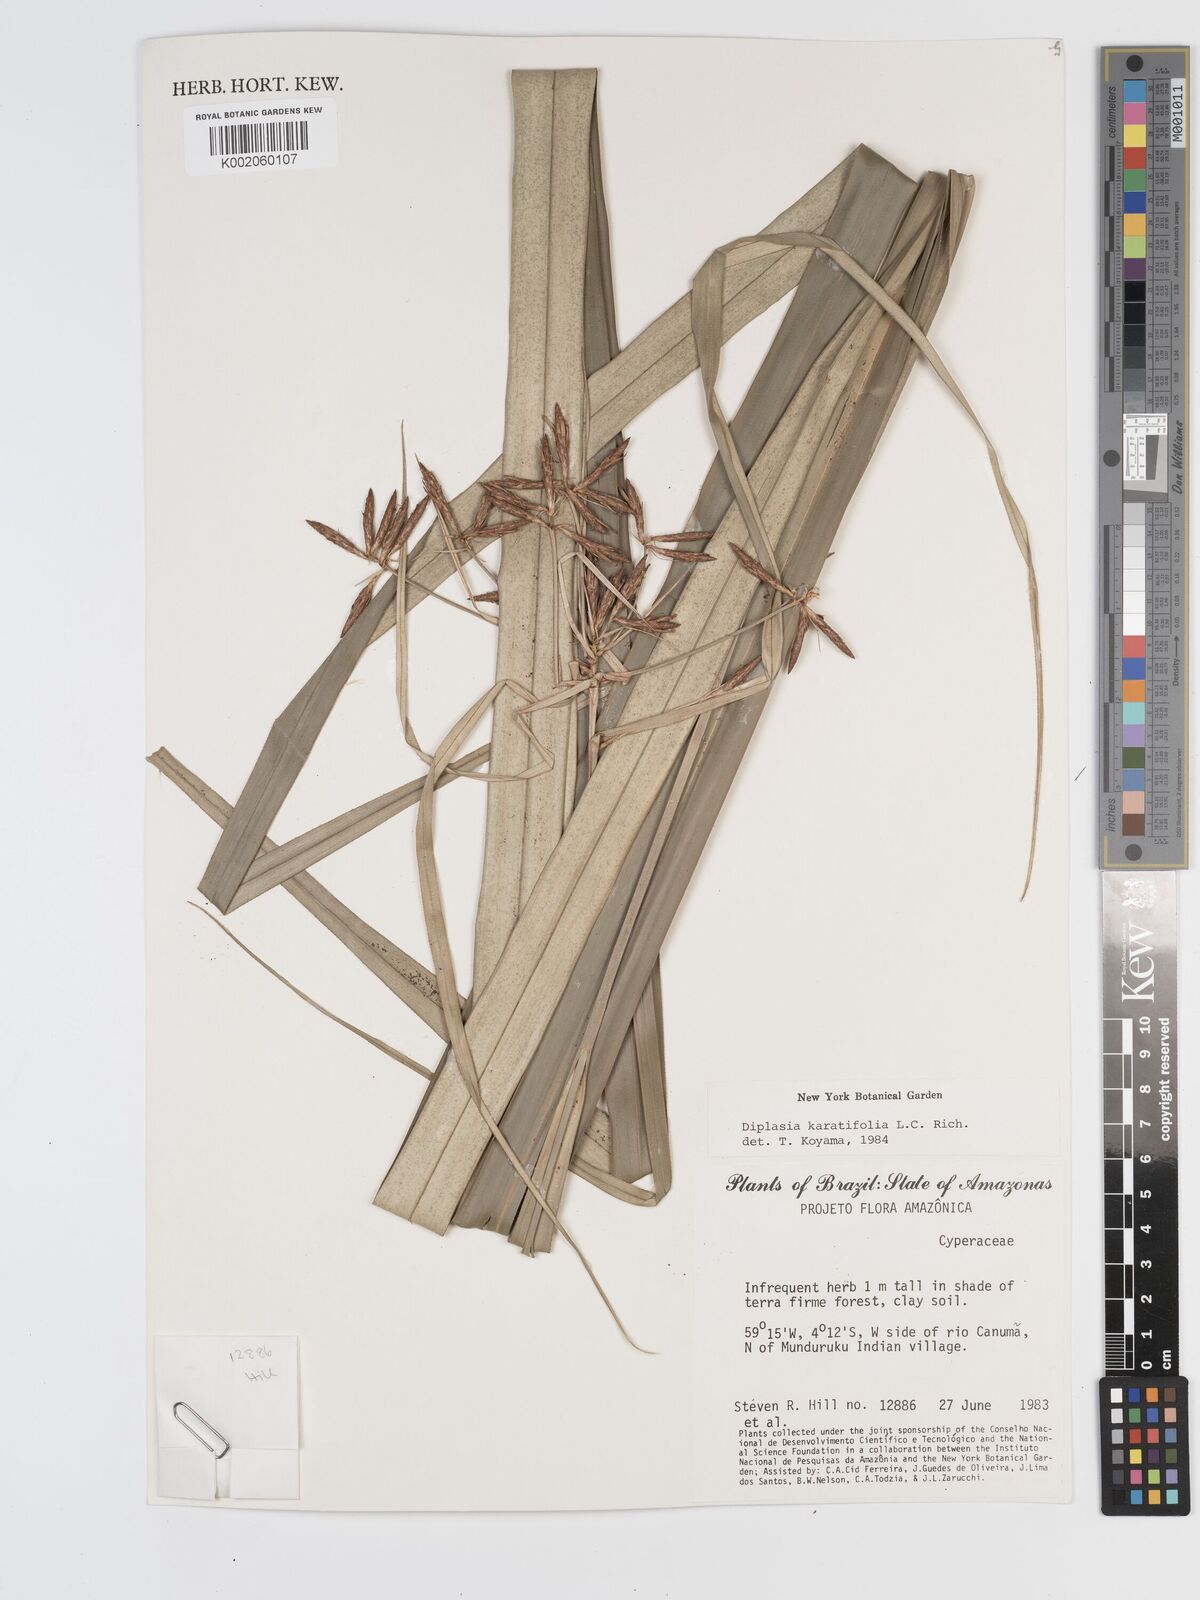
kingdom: Plantae
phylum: Tracheophyta
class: Liliopsida
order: Poales
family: Cyperaceae
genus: Diplasia
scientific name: Diplasia karatifolia
